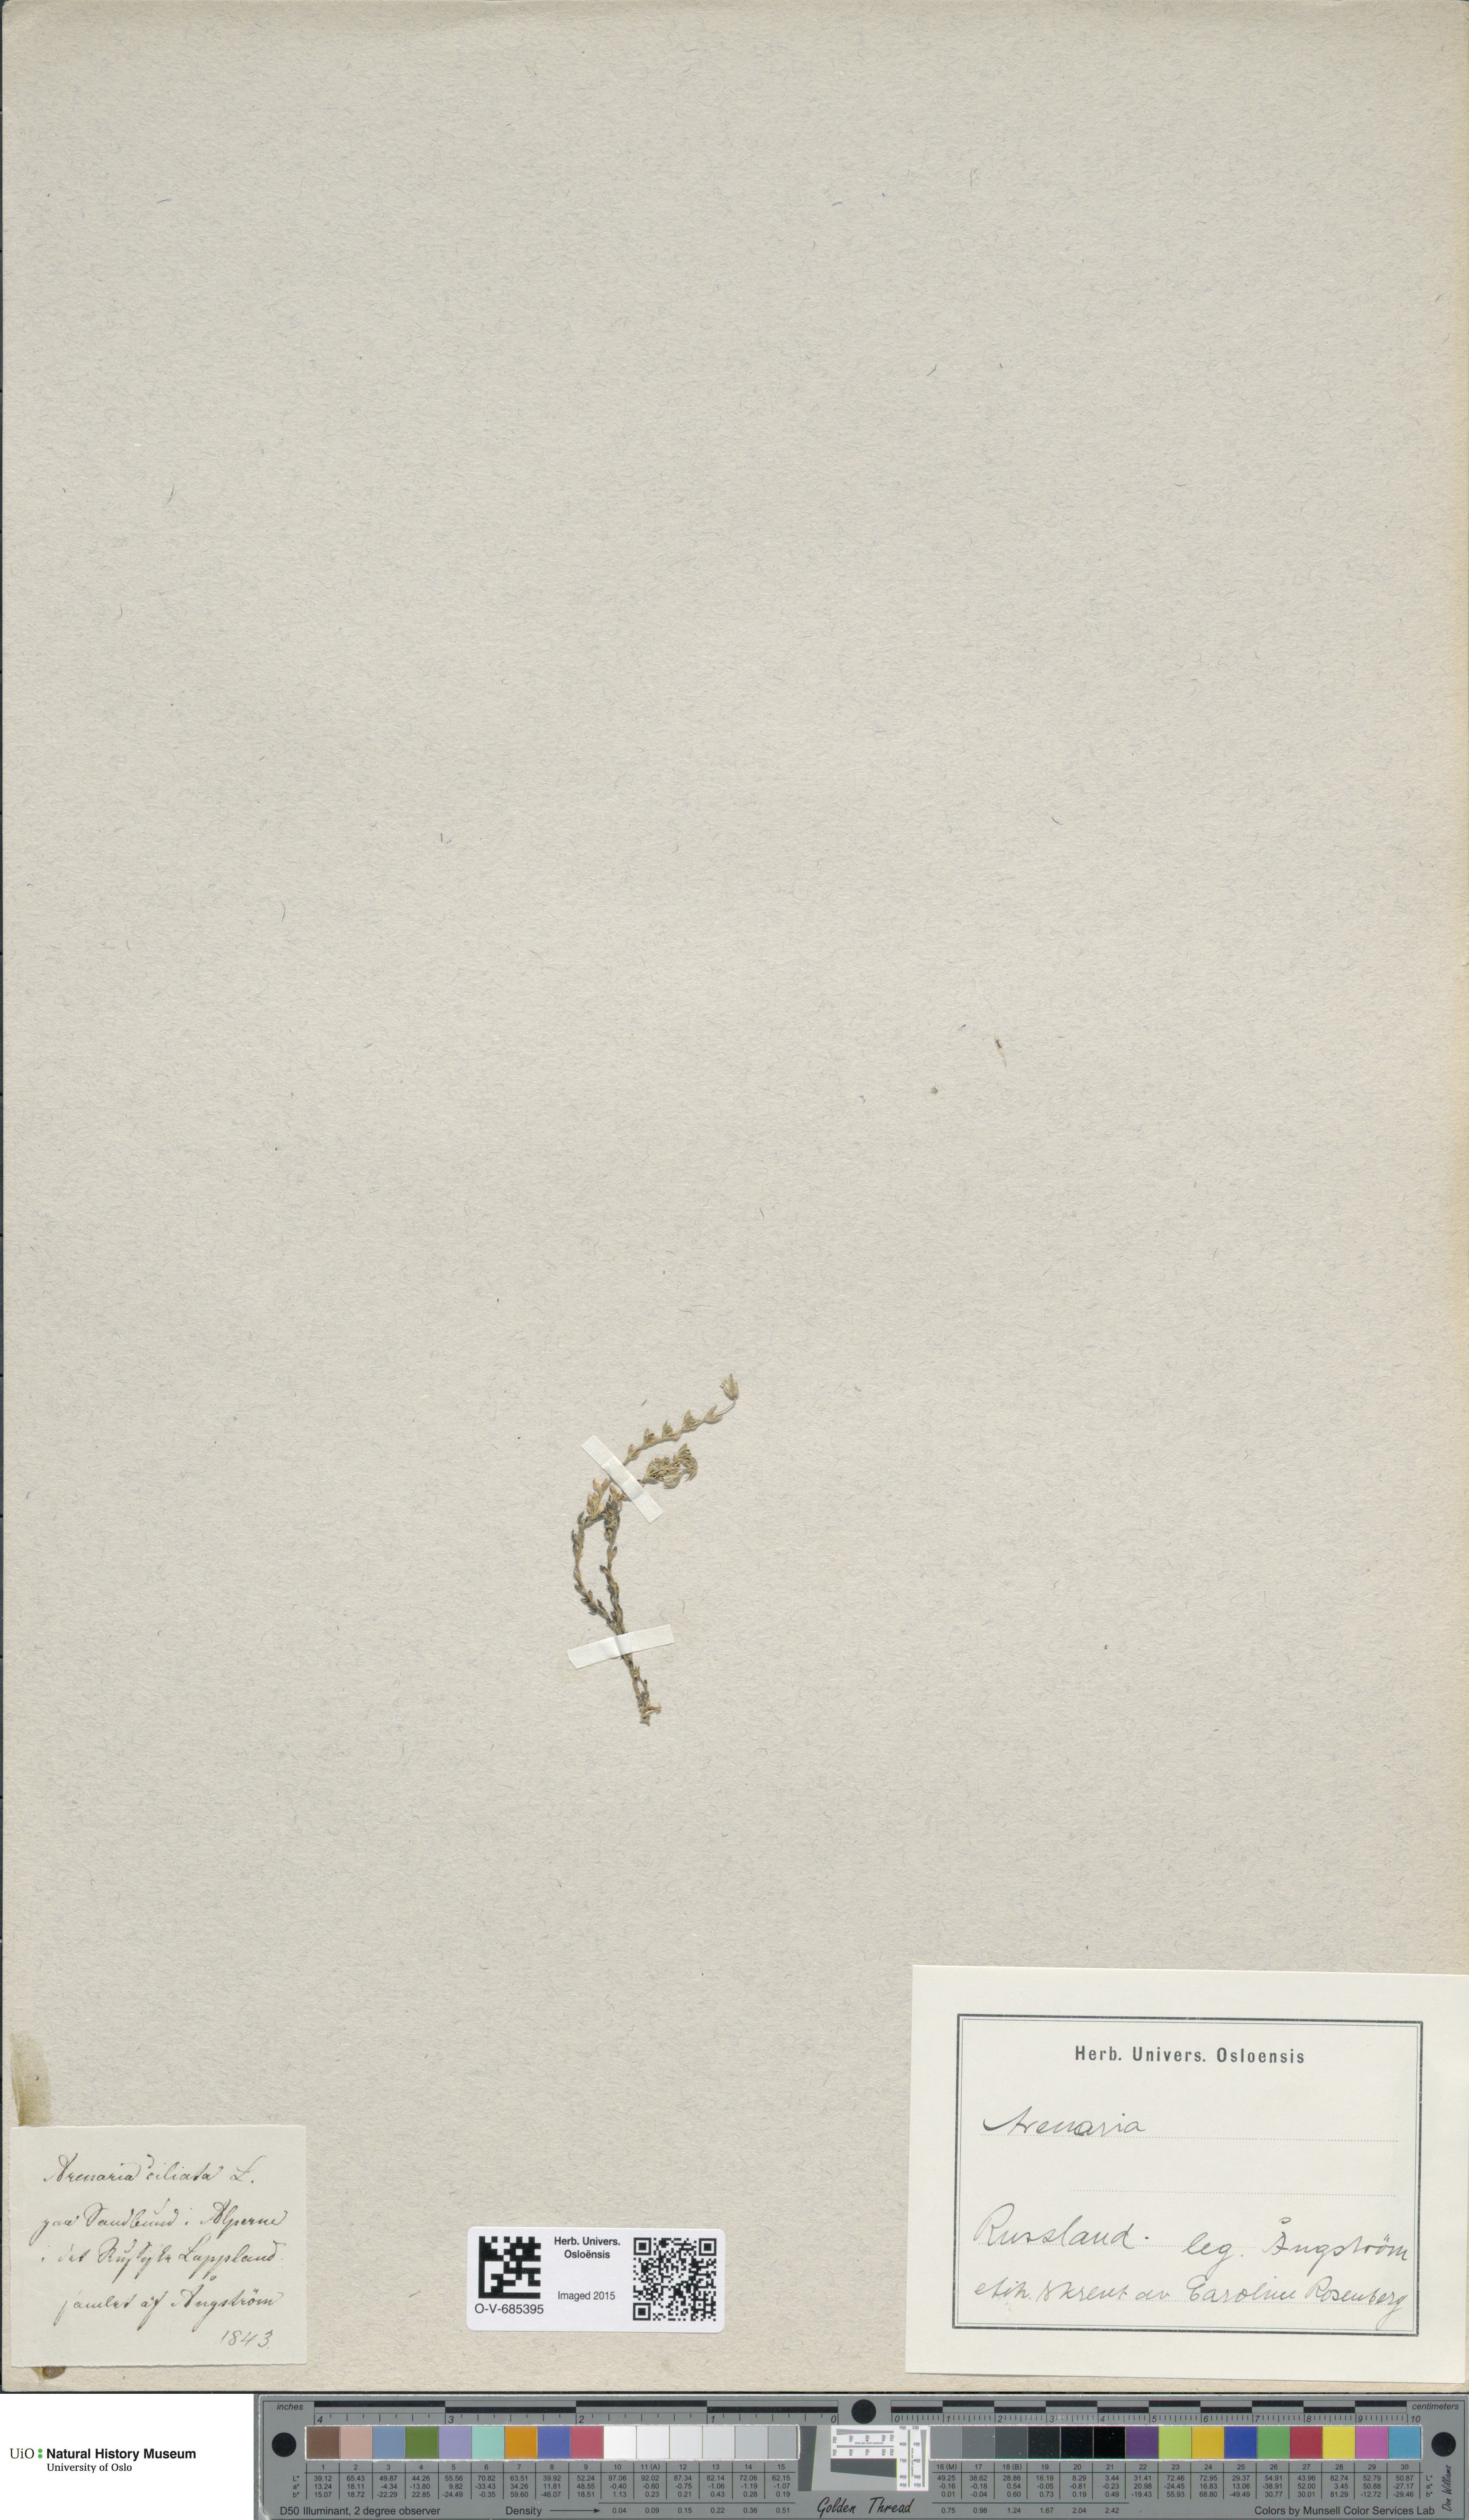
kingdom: Plantae
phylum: Tracheophyta
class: Magnoliopsida
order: Caryophyllales
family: Caryophyllaceae
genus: Arenaria
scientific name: Arenaria ciliata
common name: Fringed sandwort
